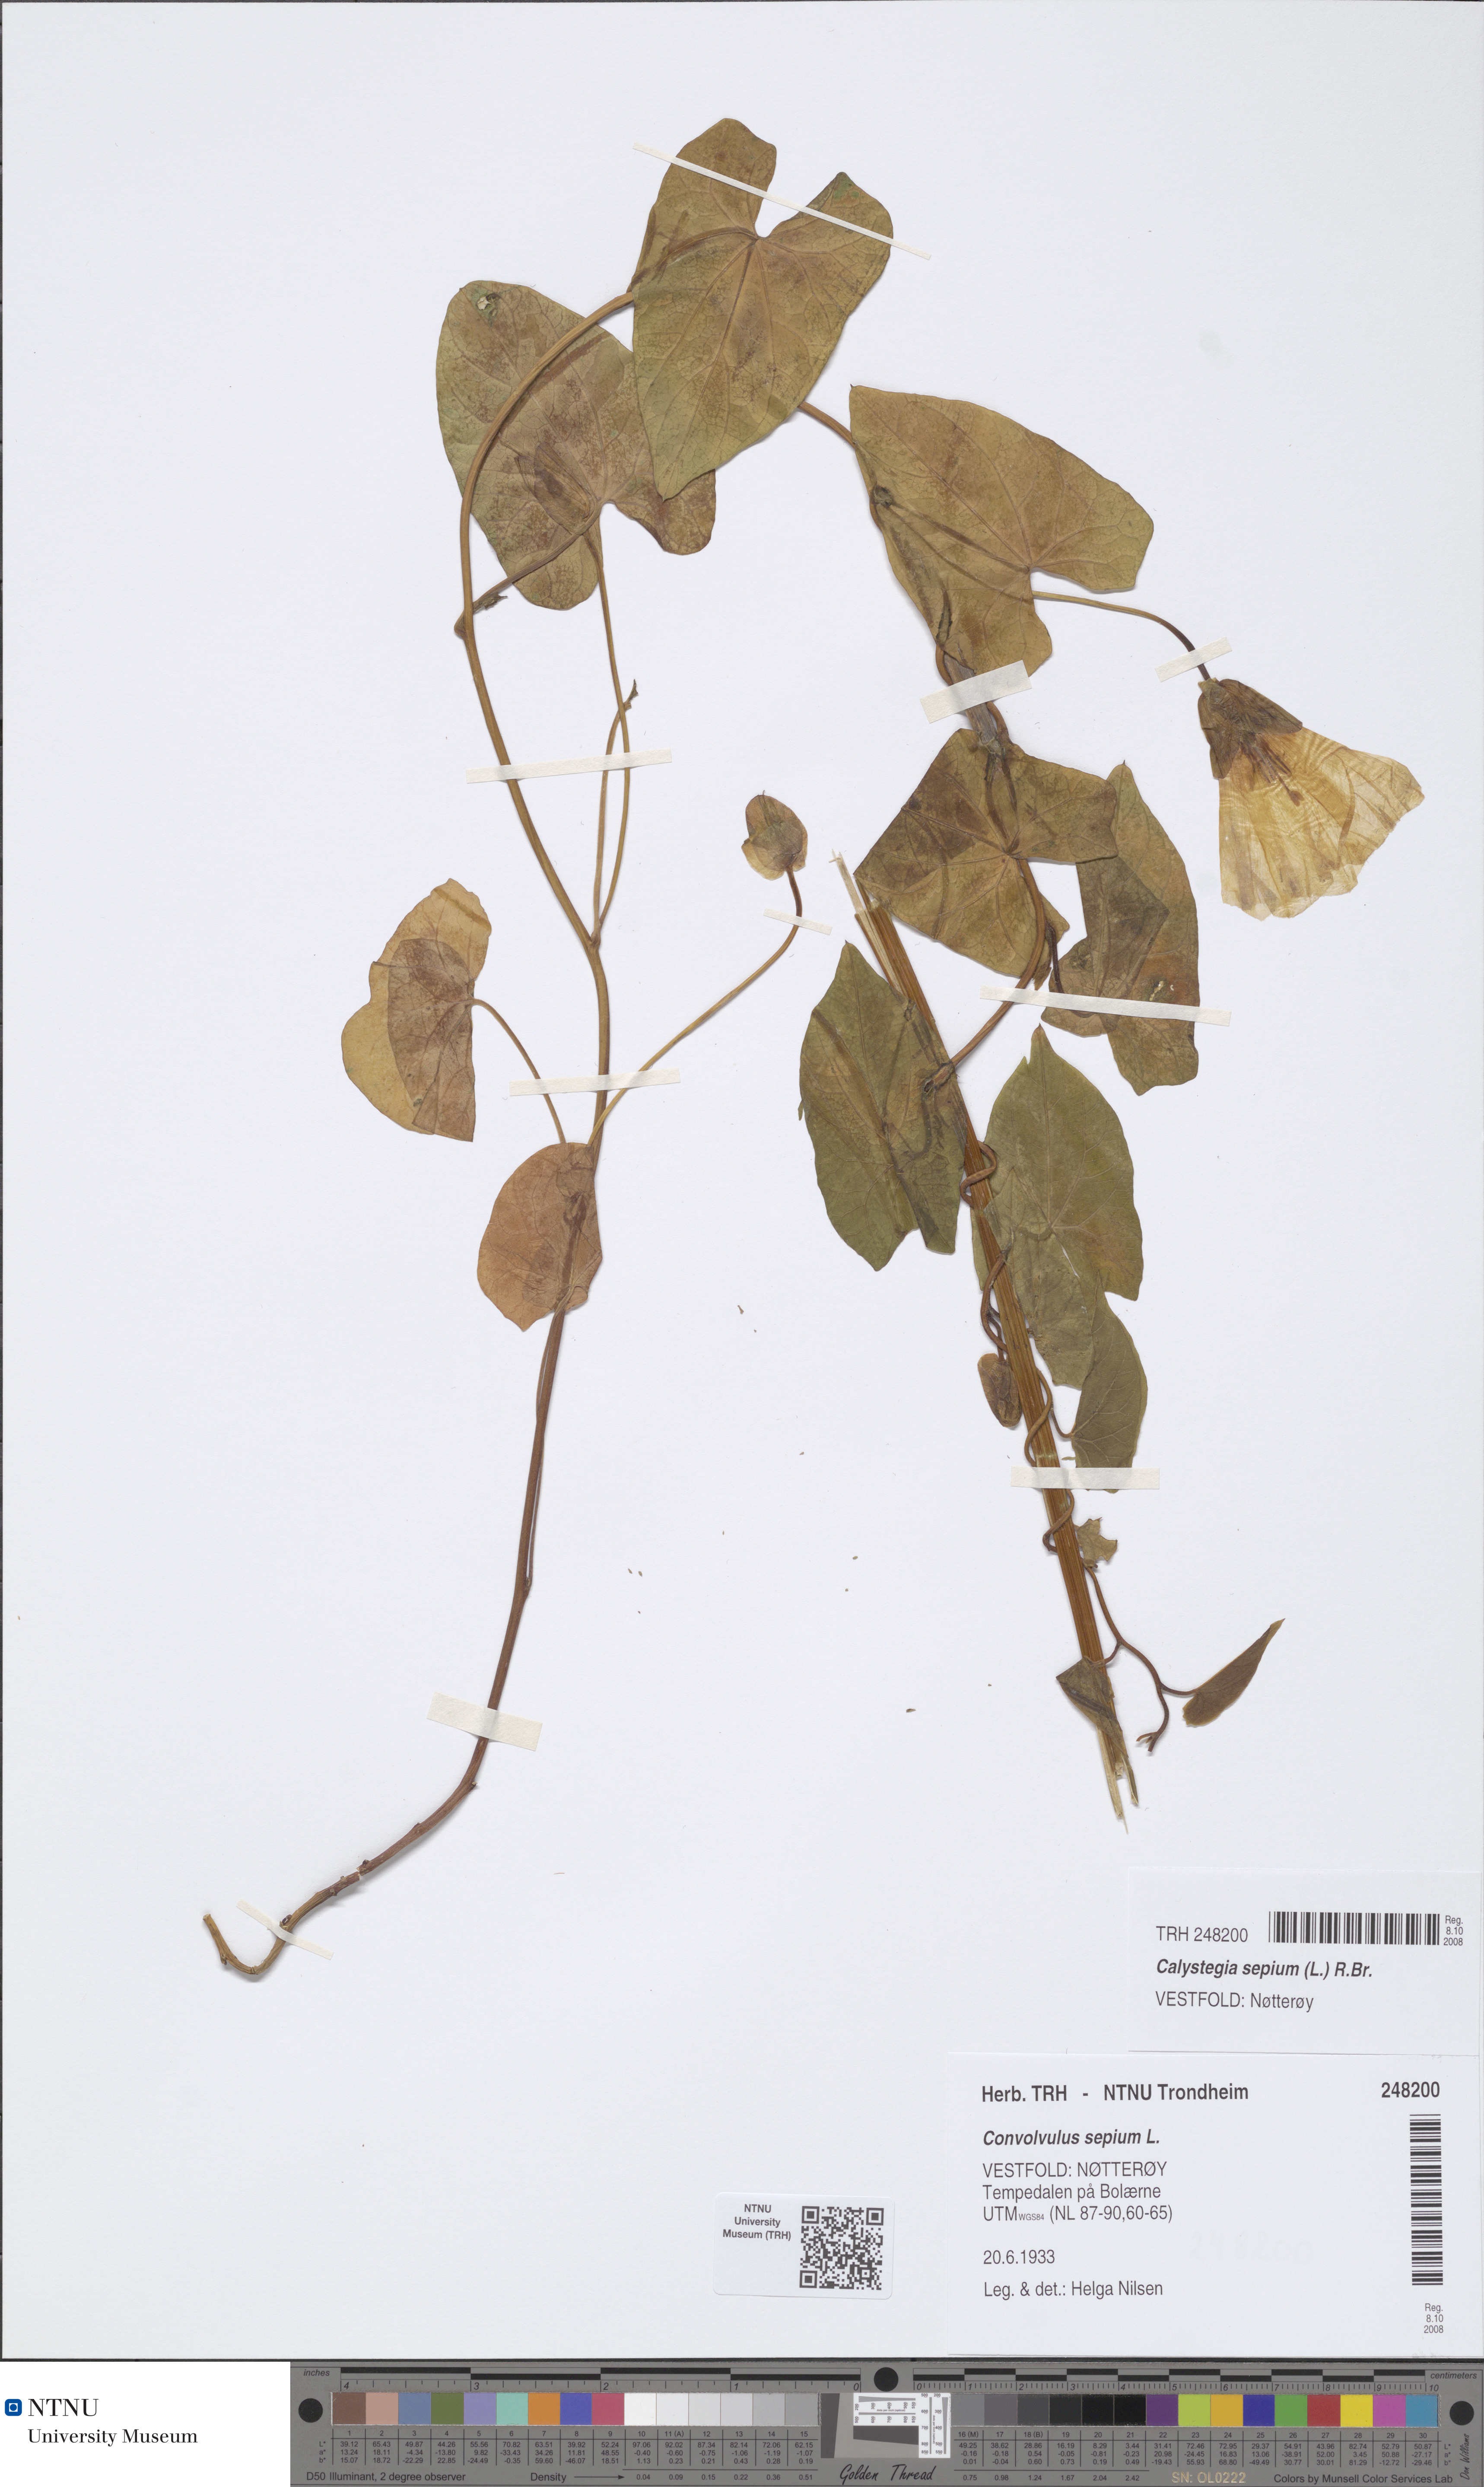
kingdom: Plantae
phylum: Tracheophyta
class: Magnoliopsida
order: Solanales
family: Convolvulaceae
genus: Calystegia
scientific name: Calystegia sepium
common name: Hedge bindweed
